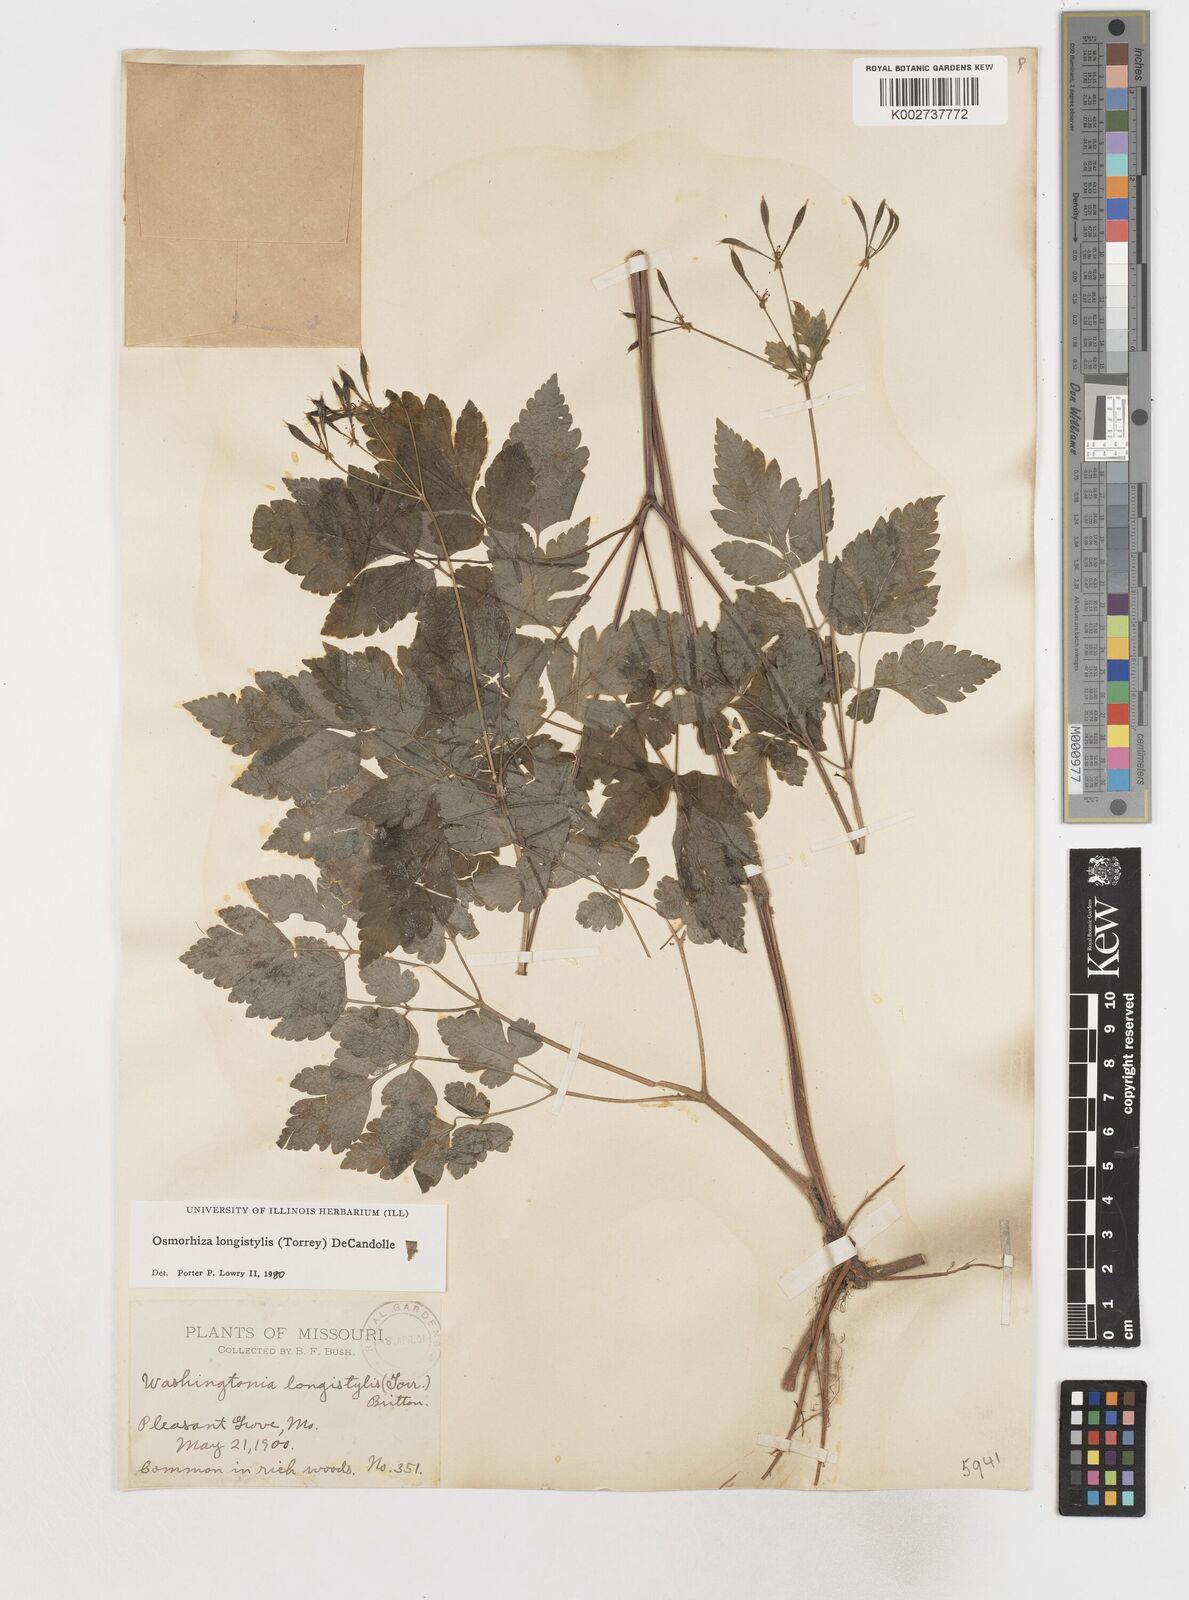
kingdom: Plantae
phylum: Tracheophyta
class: Magnoliopsida
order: Apiales
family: Apiaceae
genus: Osmorhiza
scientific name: Osmorhiza longistylis
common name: Smooth sweet cicely
